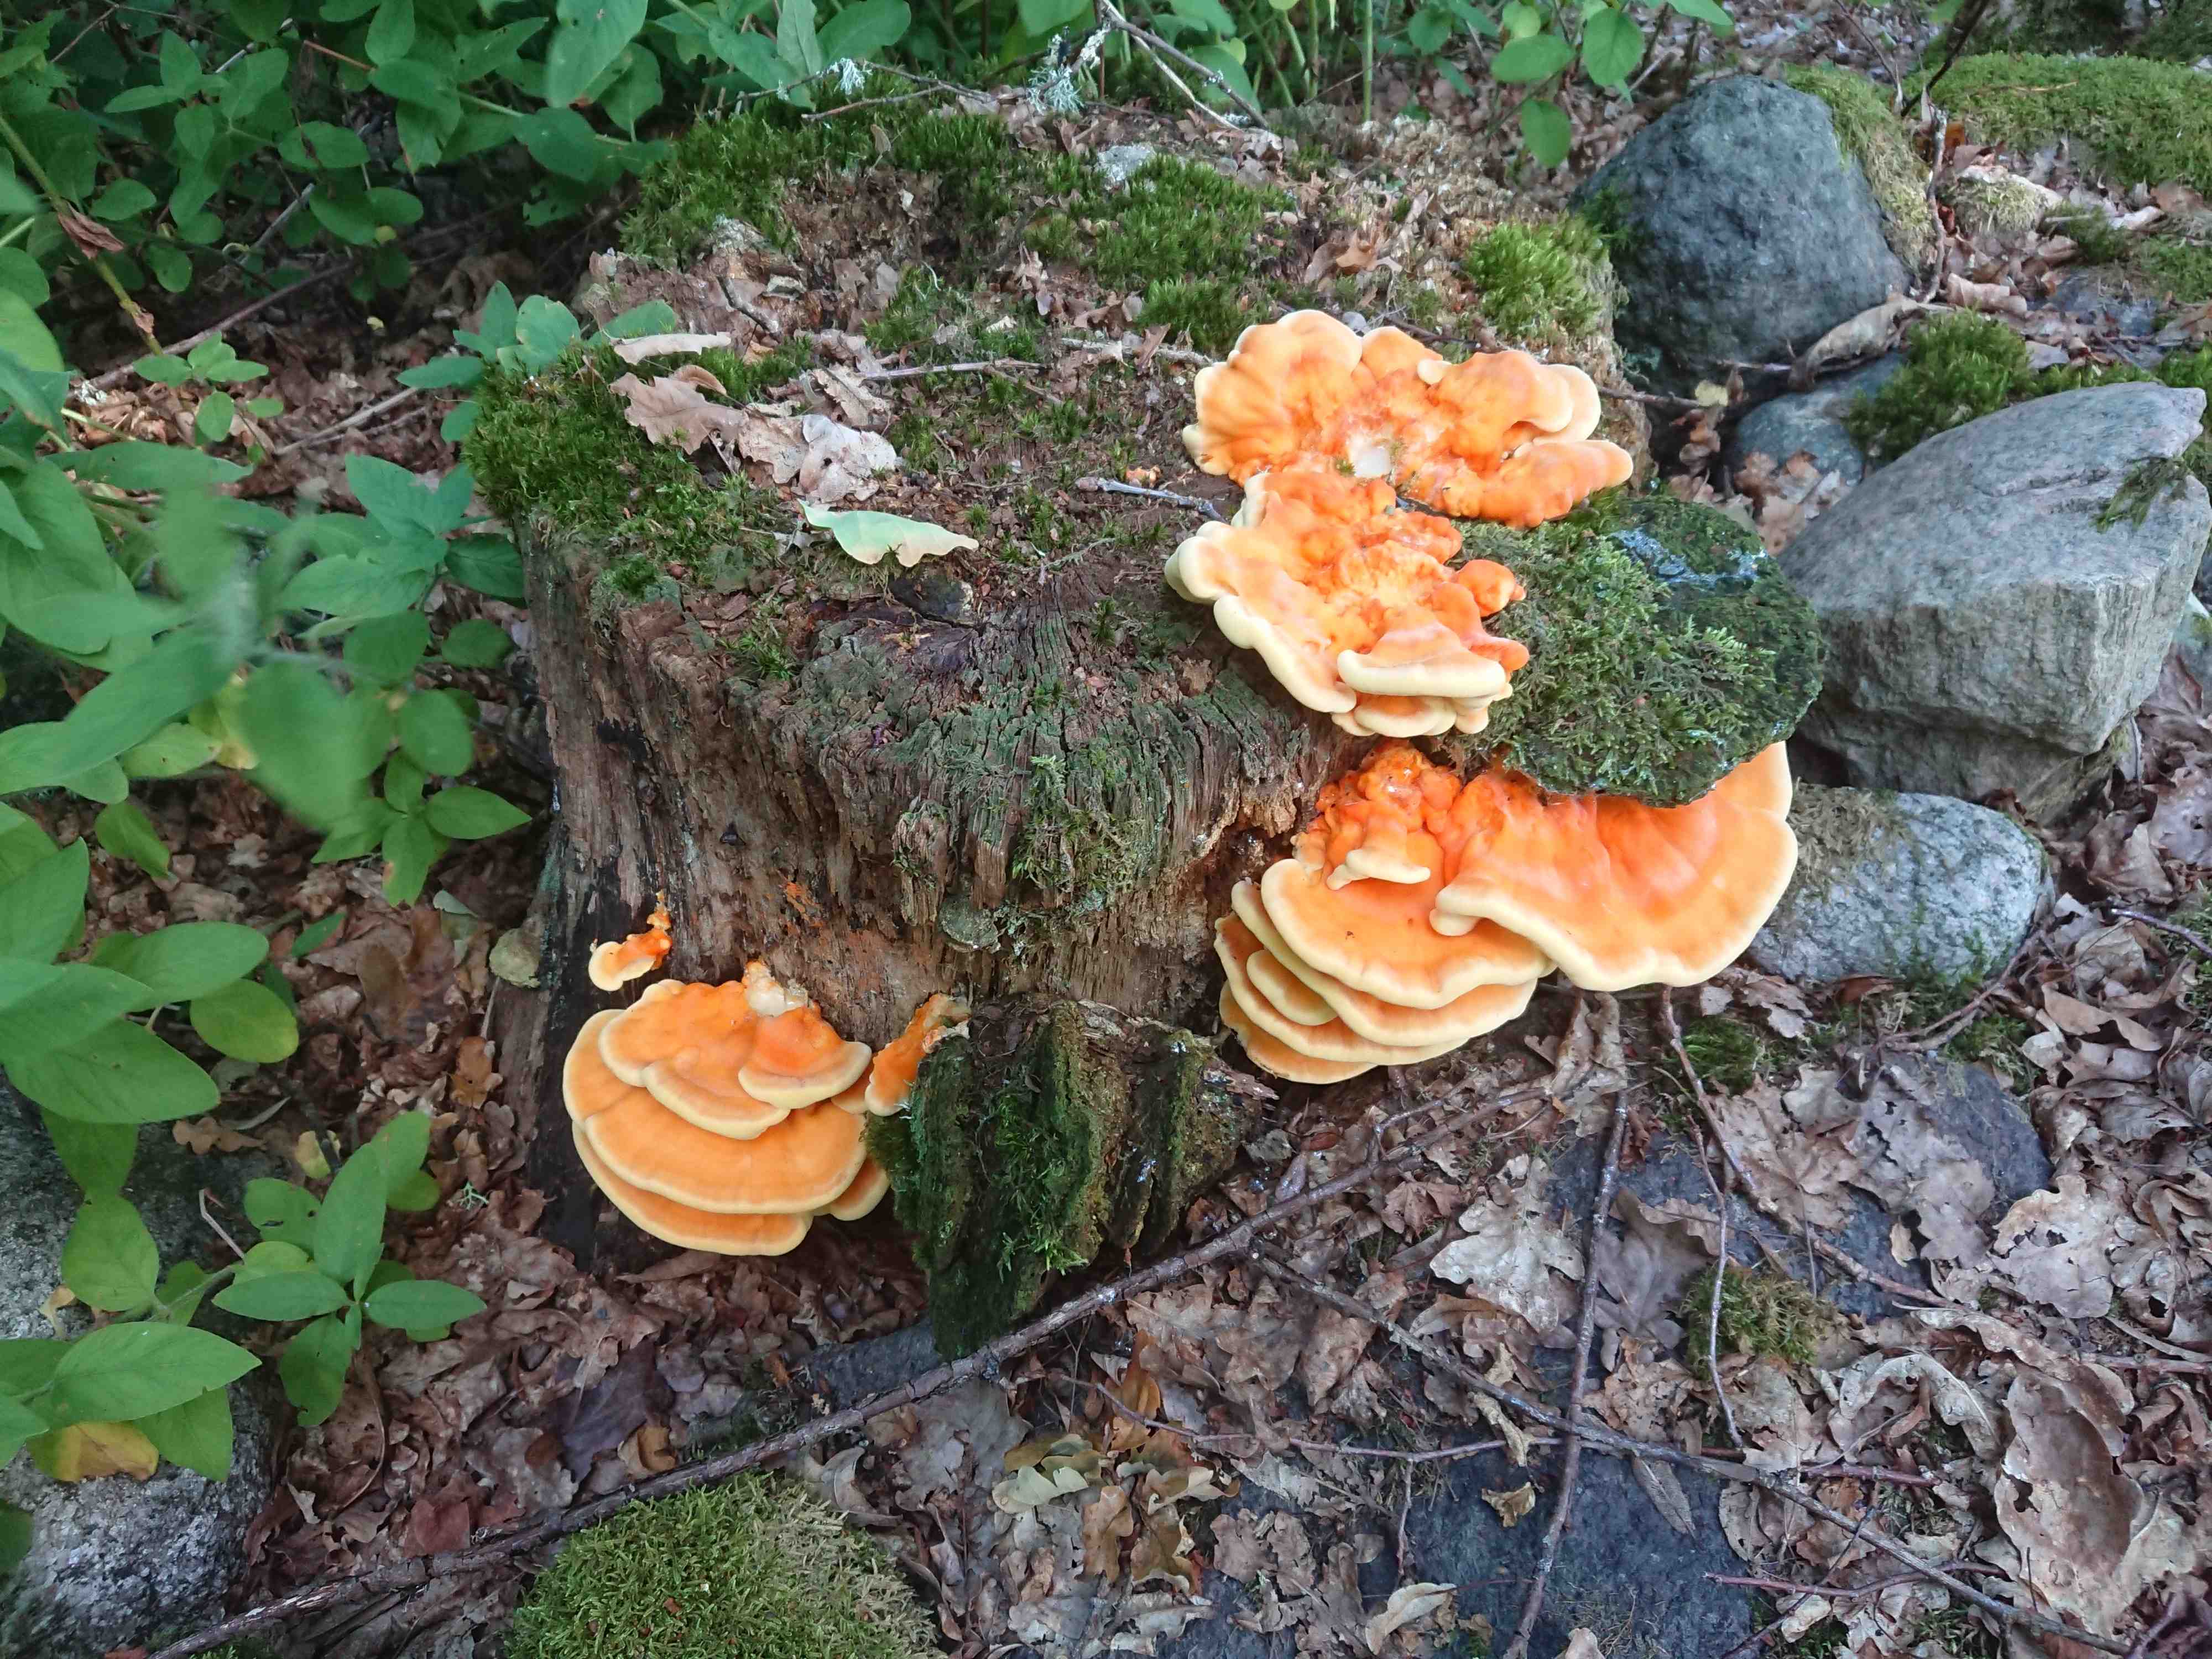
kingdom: Fungi
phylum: Basidiomycota
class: Agaricomycetes
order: Polyporales
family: Laetiporaceae
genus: Laetiporus
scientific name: Laetiporus sulphureus
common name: svovlporesvamp
